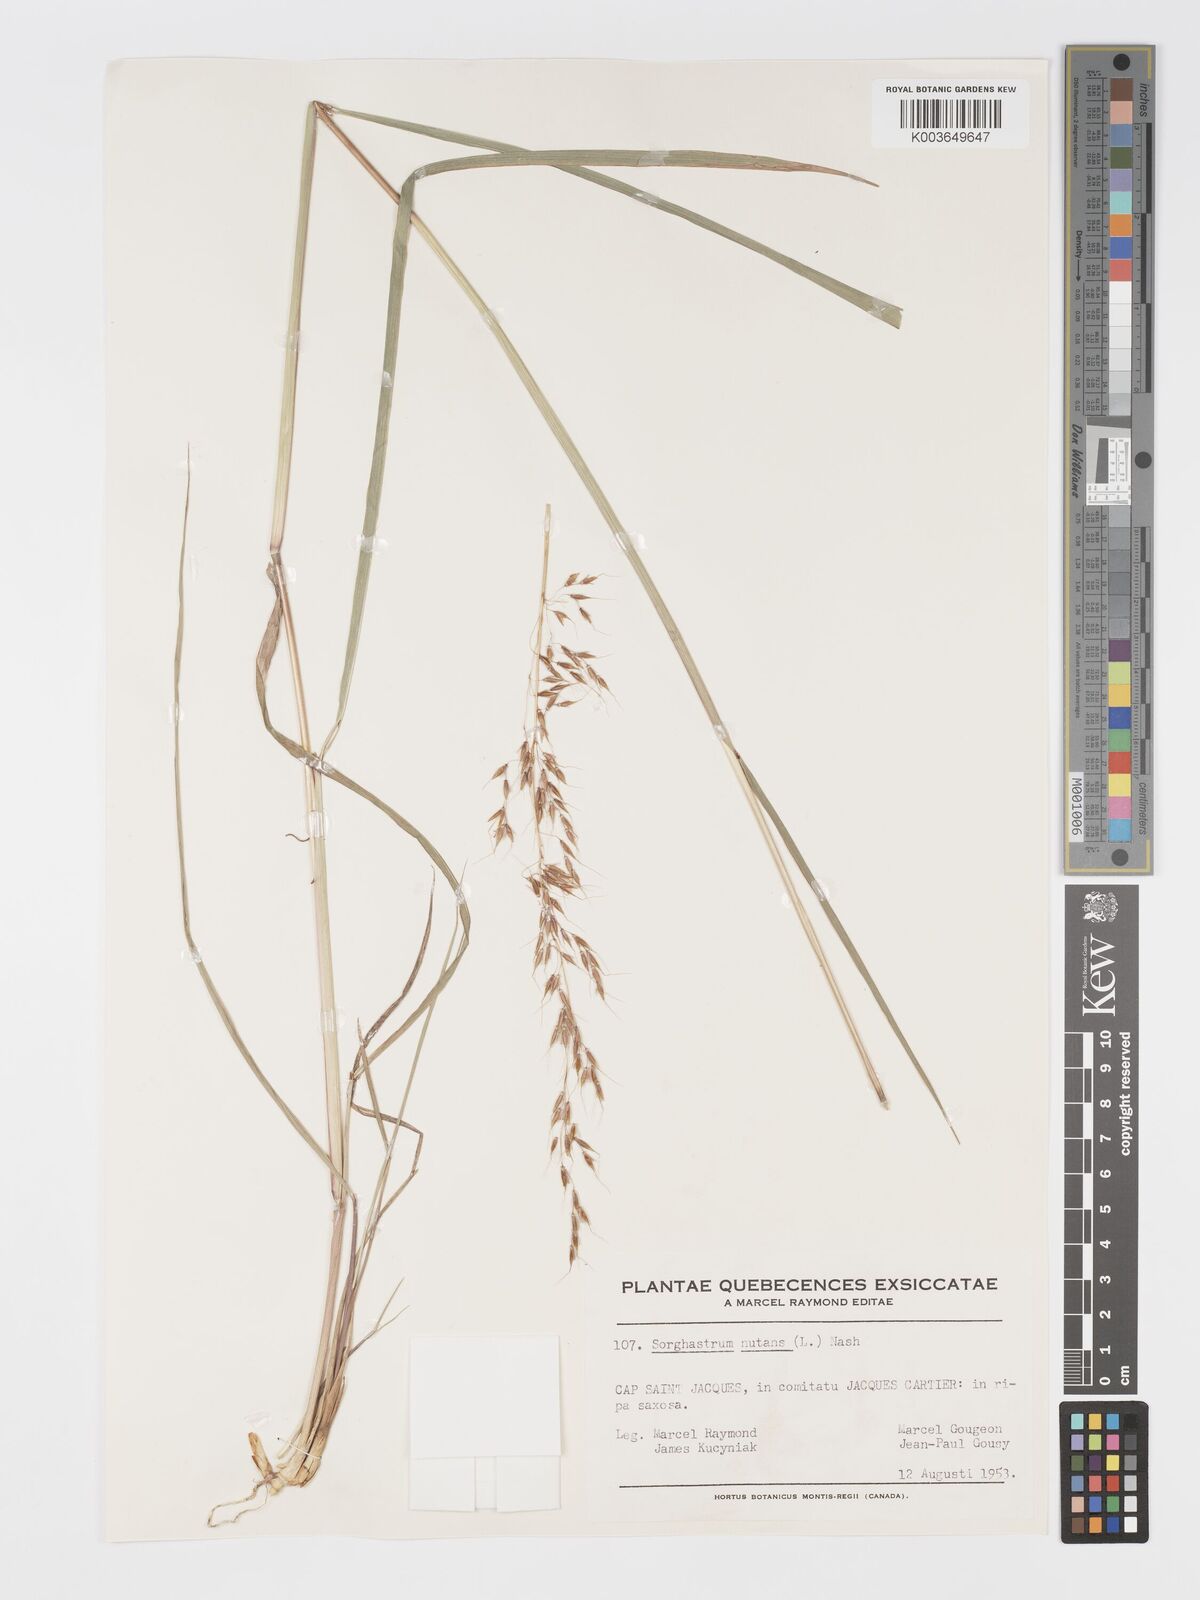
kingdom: Plantae
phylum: Tracheophyta
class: Liliopsida
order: Poales
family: Poaceae
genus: Sorghastrum
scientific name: Sorghastrum nutans
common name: Indian grass
